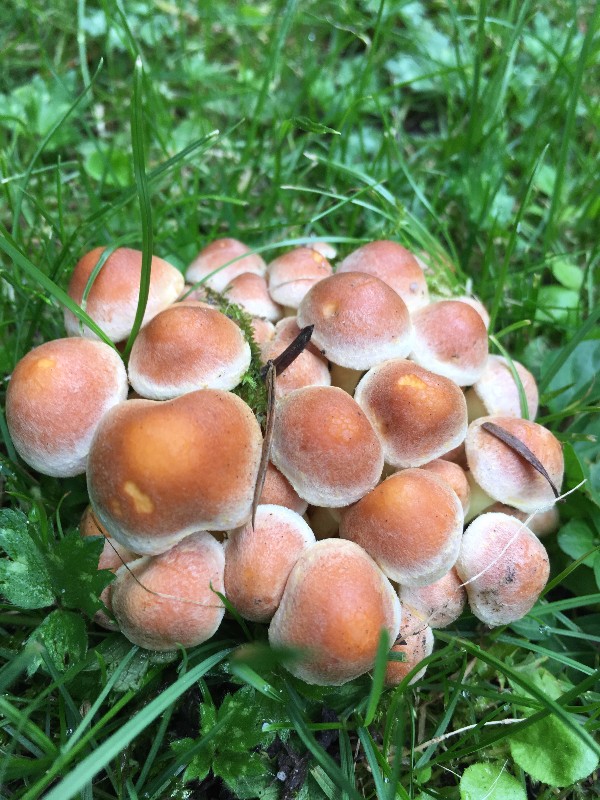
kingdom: Fungi
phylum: Basidiomycota
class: Agaricomycetes
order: Agaricales
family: Strophariaceae
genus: Hypholoma
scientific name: Hypholoma fasciculare
